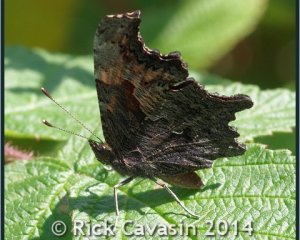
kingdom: Animalia
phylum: Arthropoda
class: Insecta
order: Lepidoptera
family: Nymphalidae
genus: Polygonia
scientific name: Polygonia progne
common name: Gray Comma
